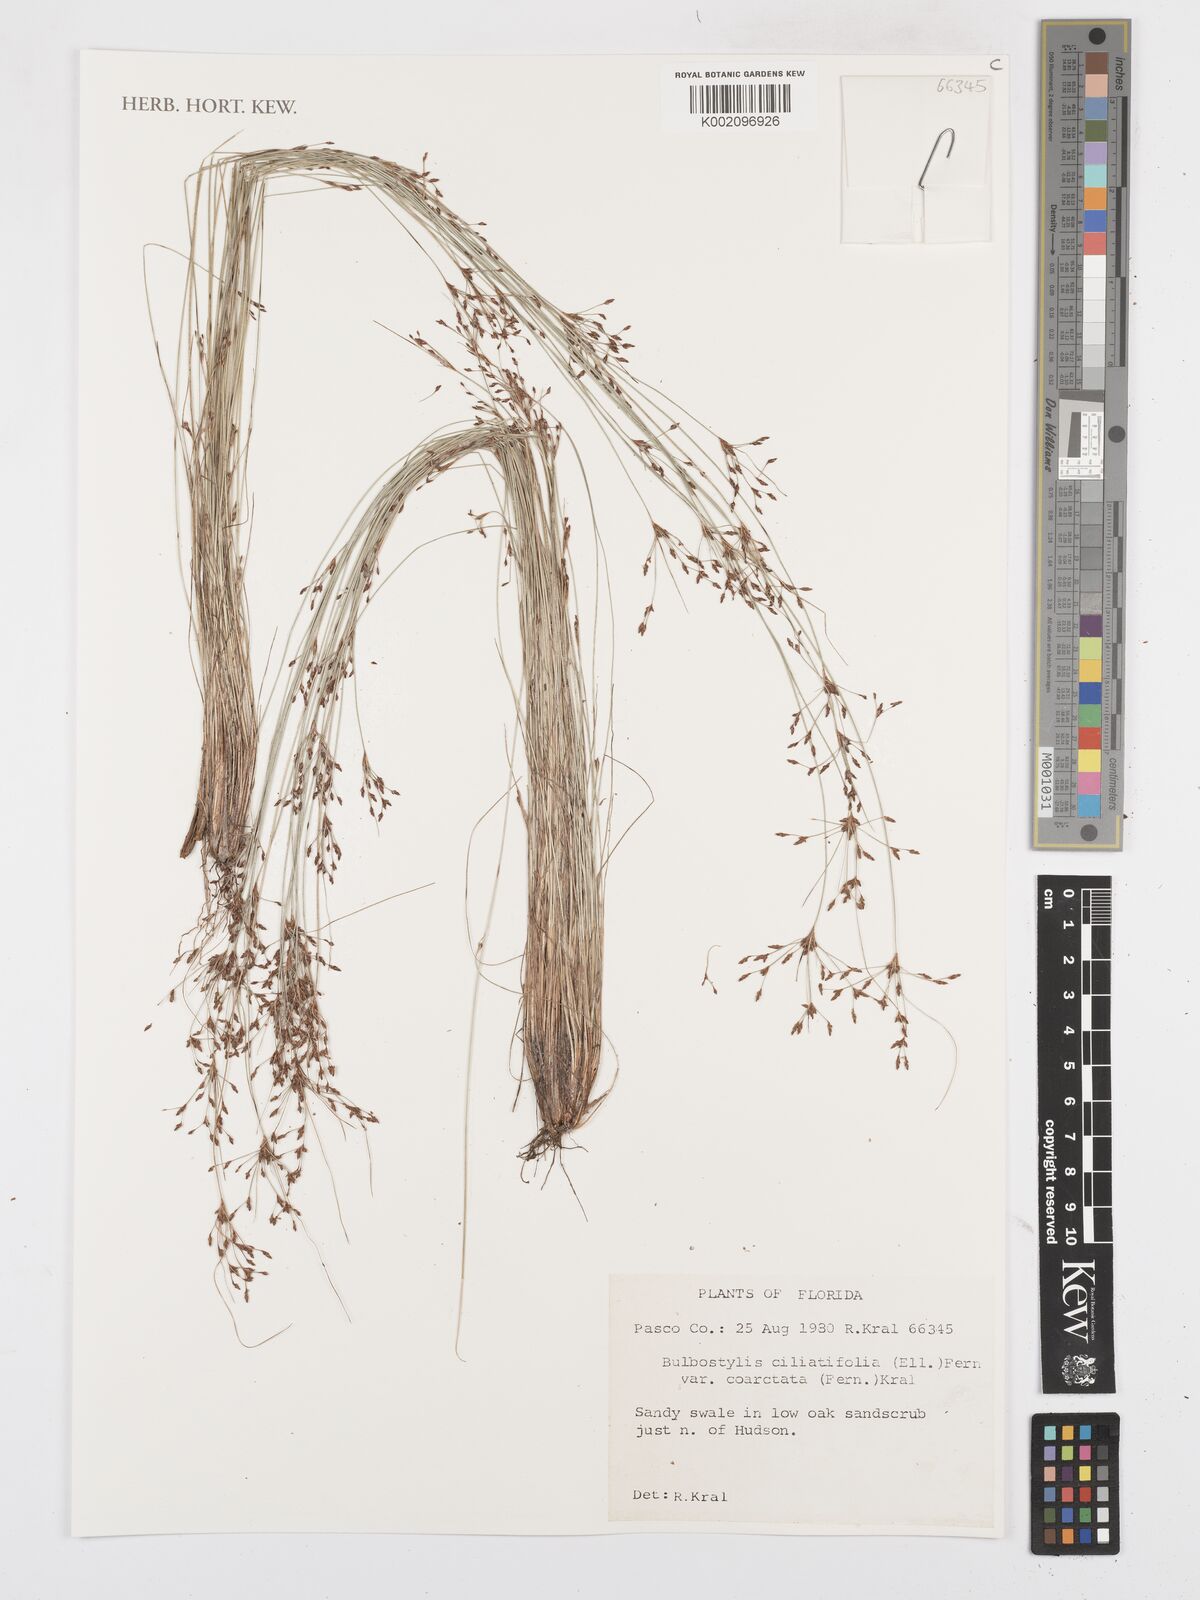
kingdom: Plantae
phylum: Tracheophyta
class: Liliopsida
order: Poales
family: Cyperaceae
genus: Bulbostylis
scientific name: Bulbostylis ciliatifolia
